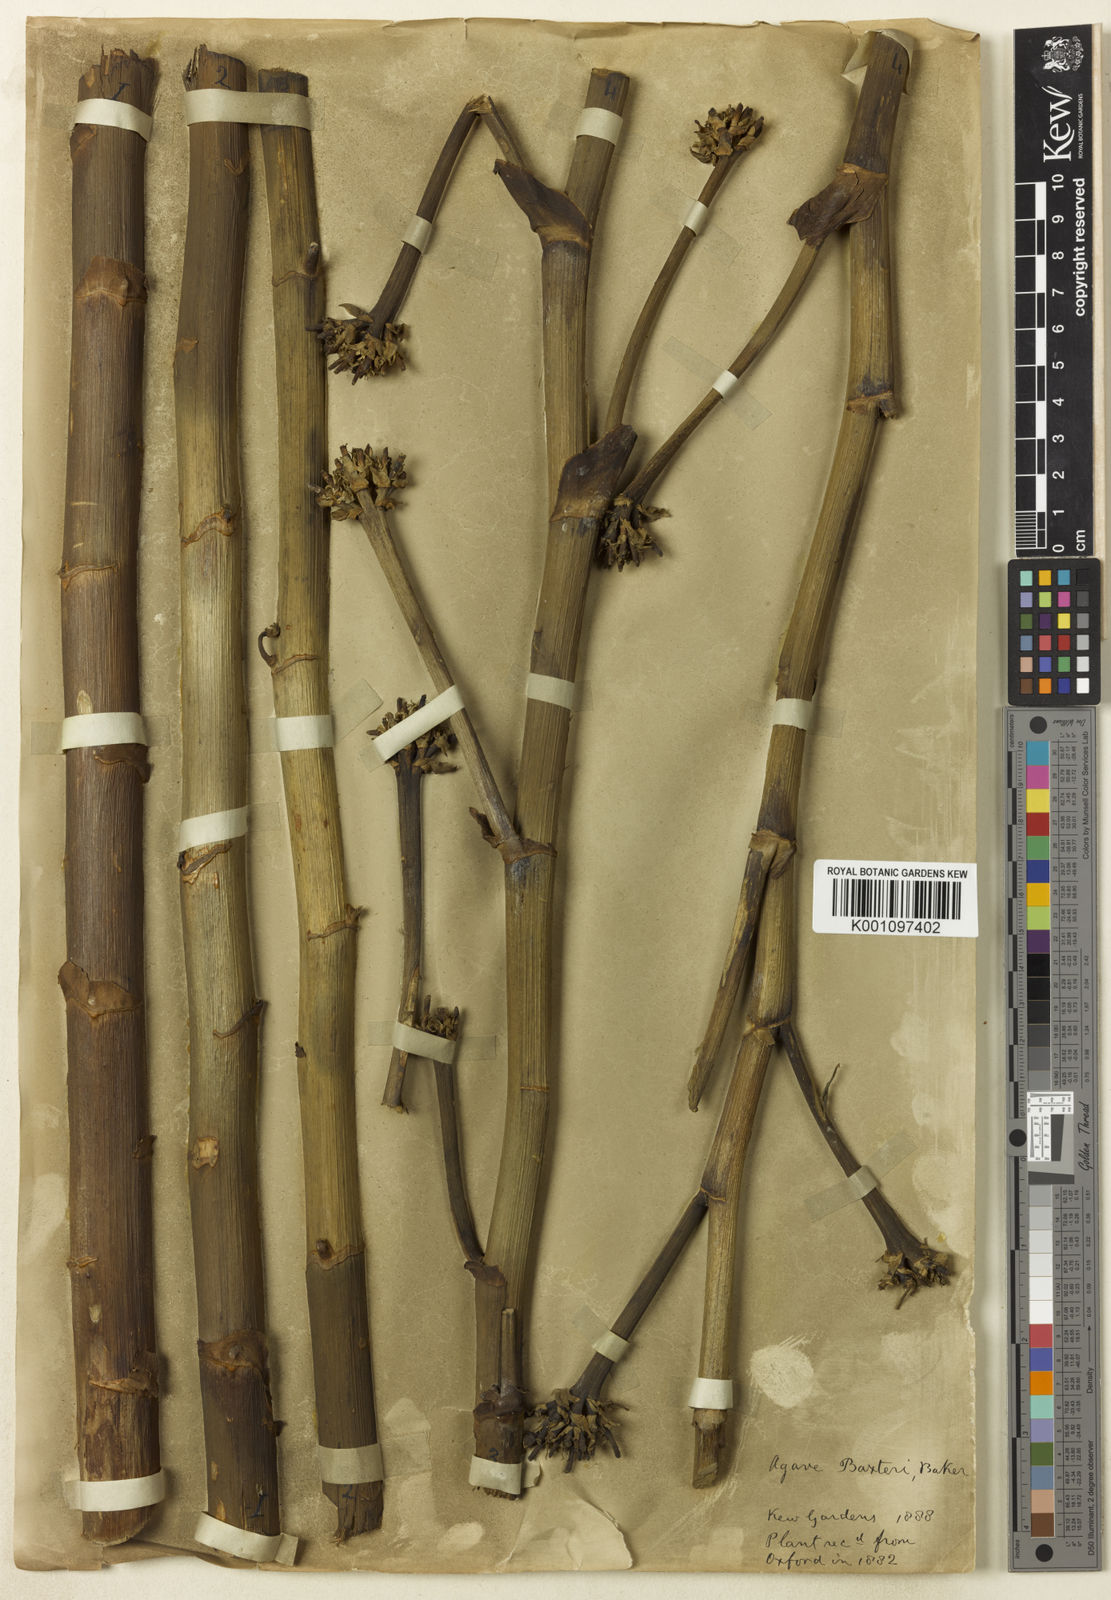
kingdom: Plantae
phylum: Tracheophyta
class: Liliopsida
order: Asparagales
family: Asparagaceae
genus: Agave
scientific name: Agave baxteri
